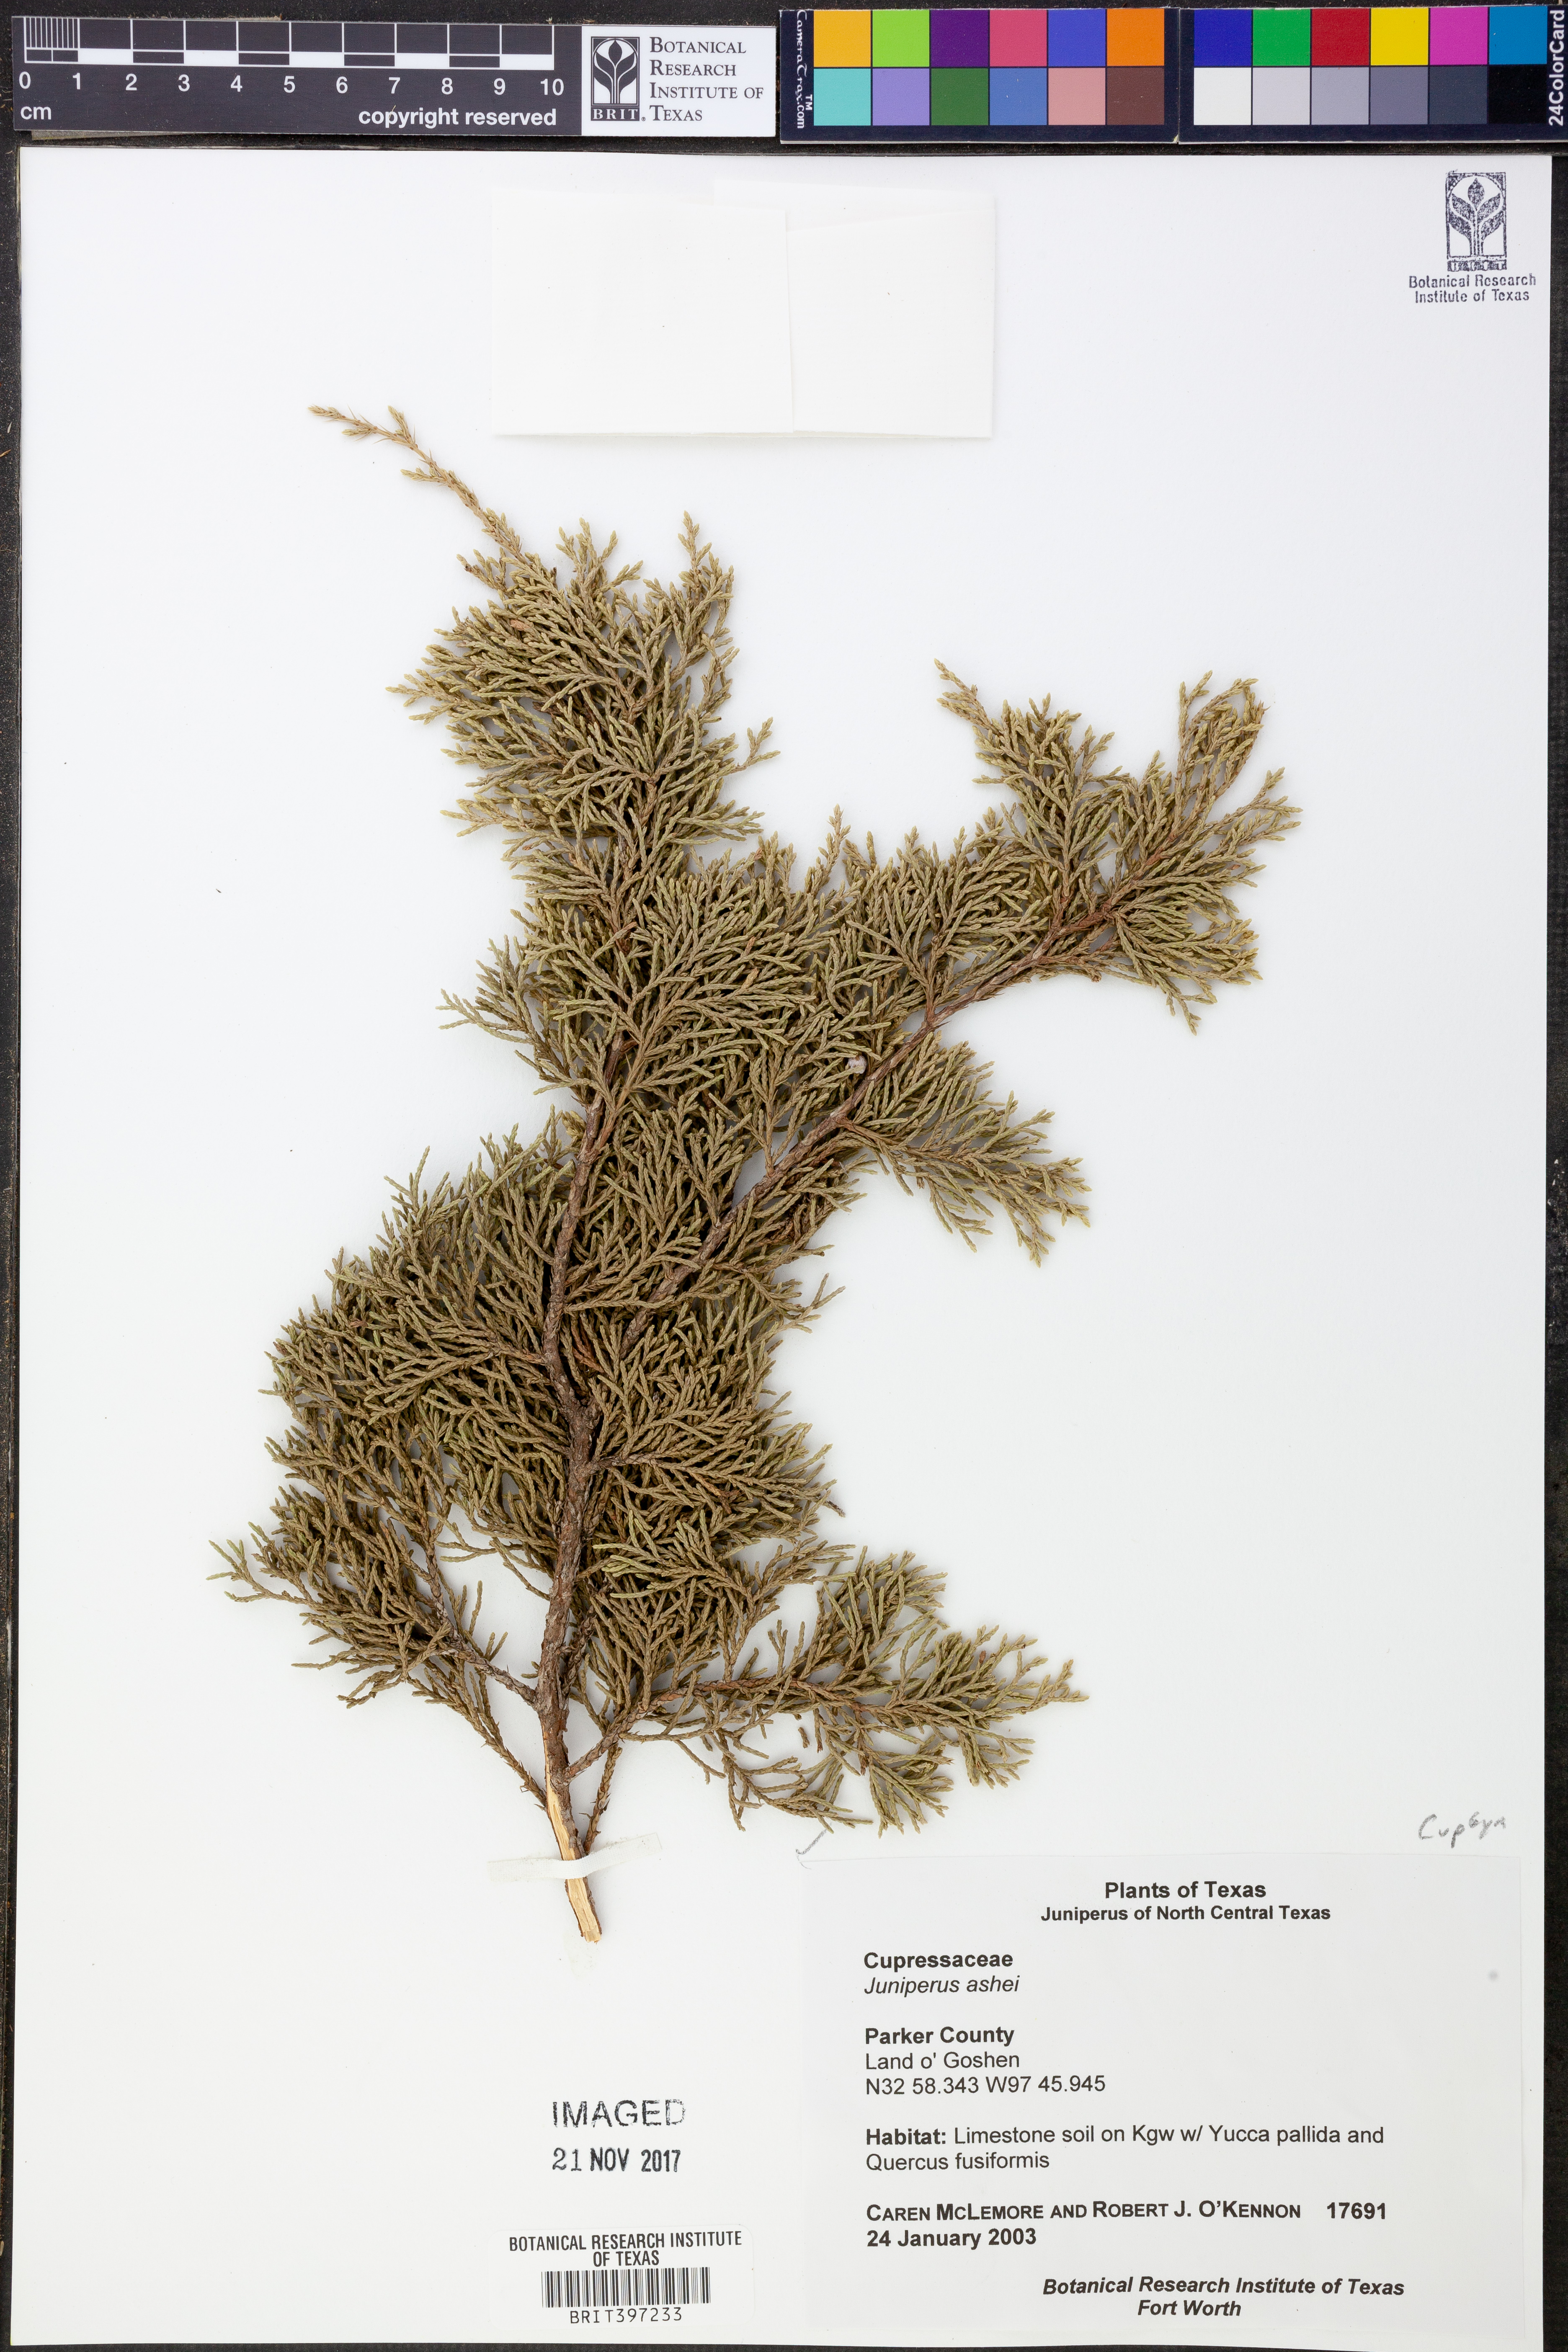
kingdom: Plantae
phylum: Tracheophyta
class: Pinopsida
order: Pinales
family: Cupressaceae
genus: Juniperus
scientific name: Juniperus ashei
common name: Mexican juniper
